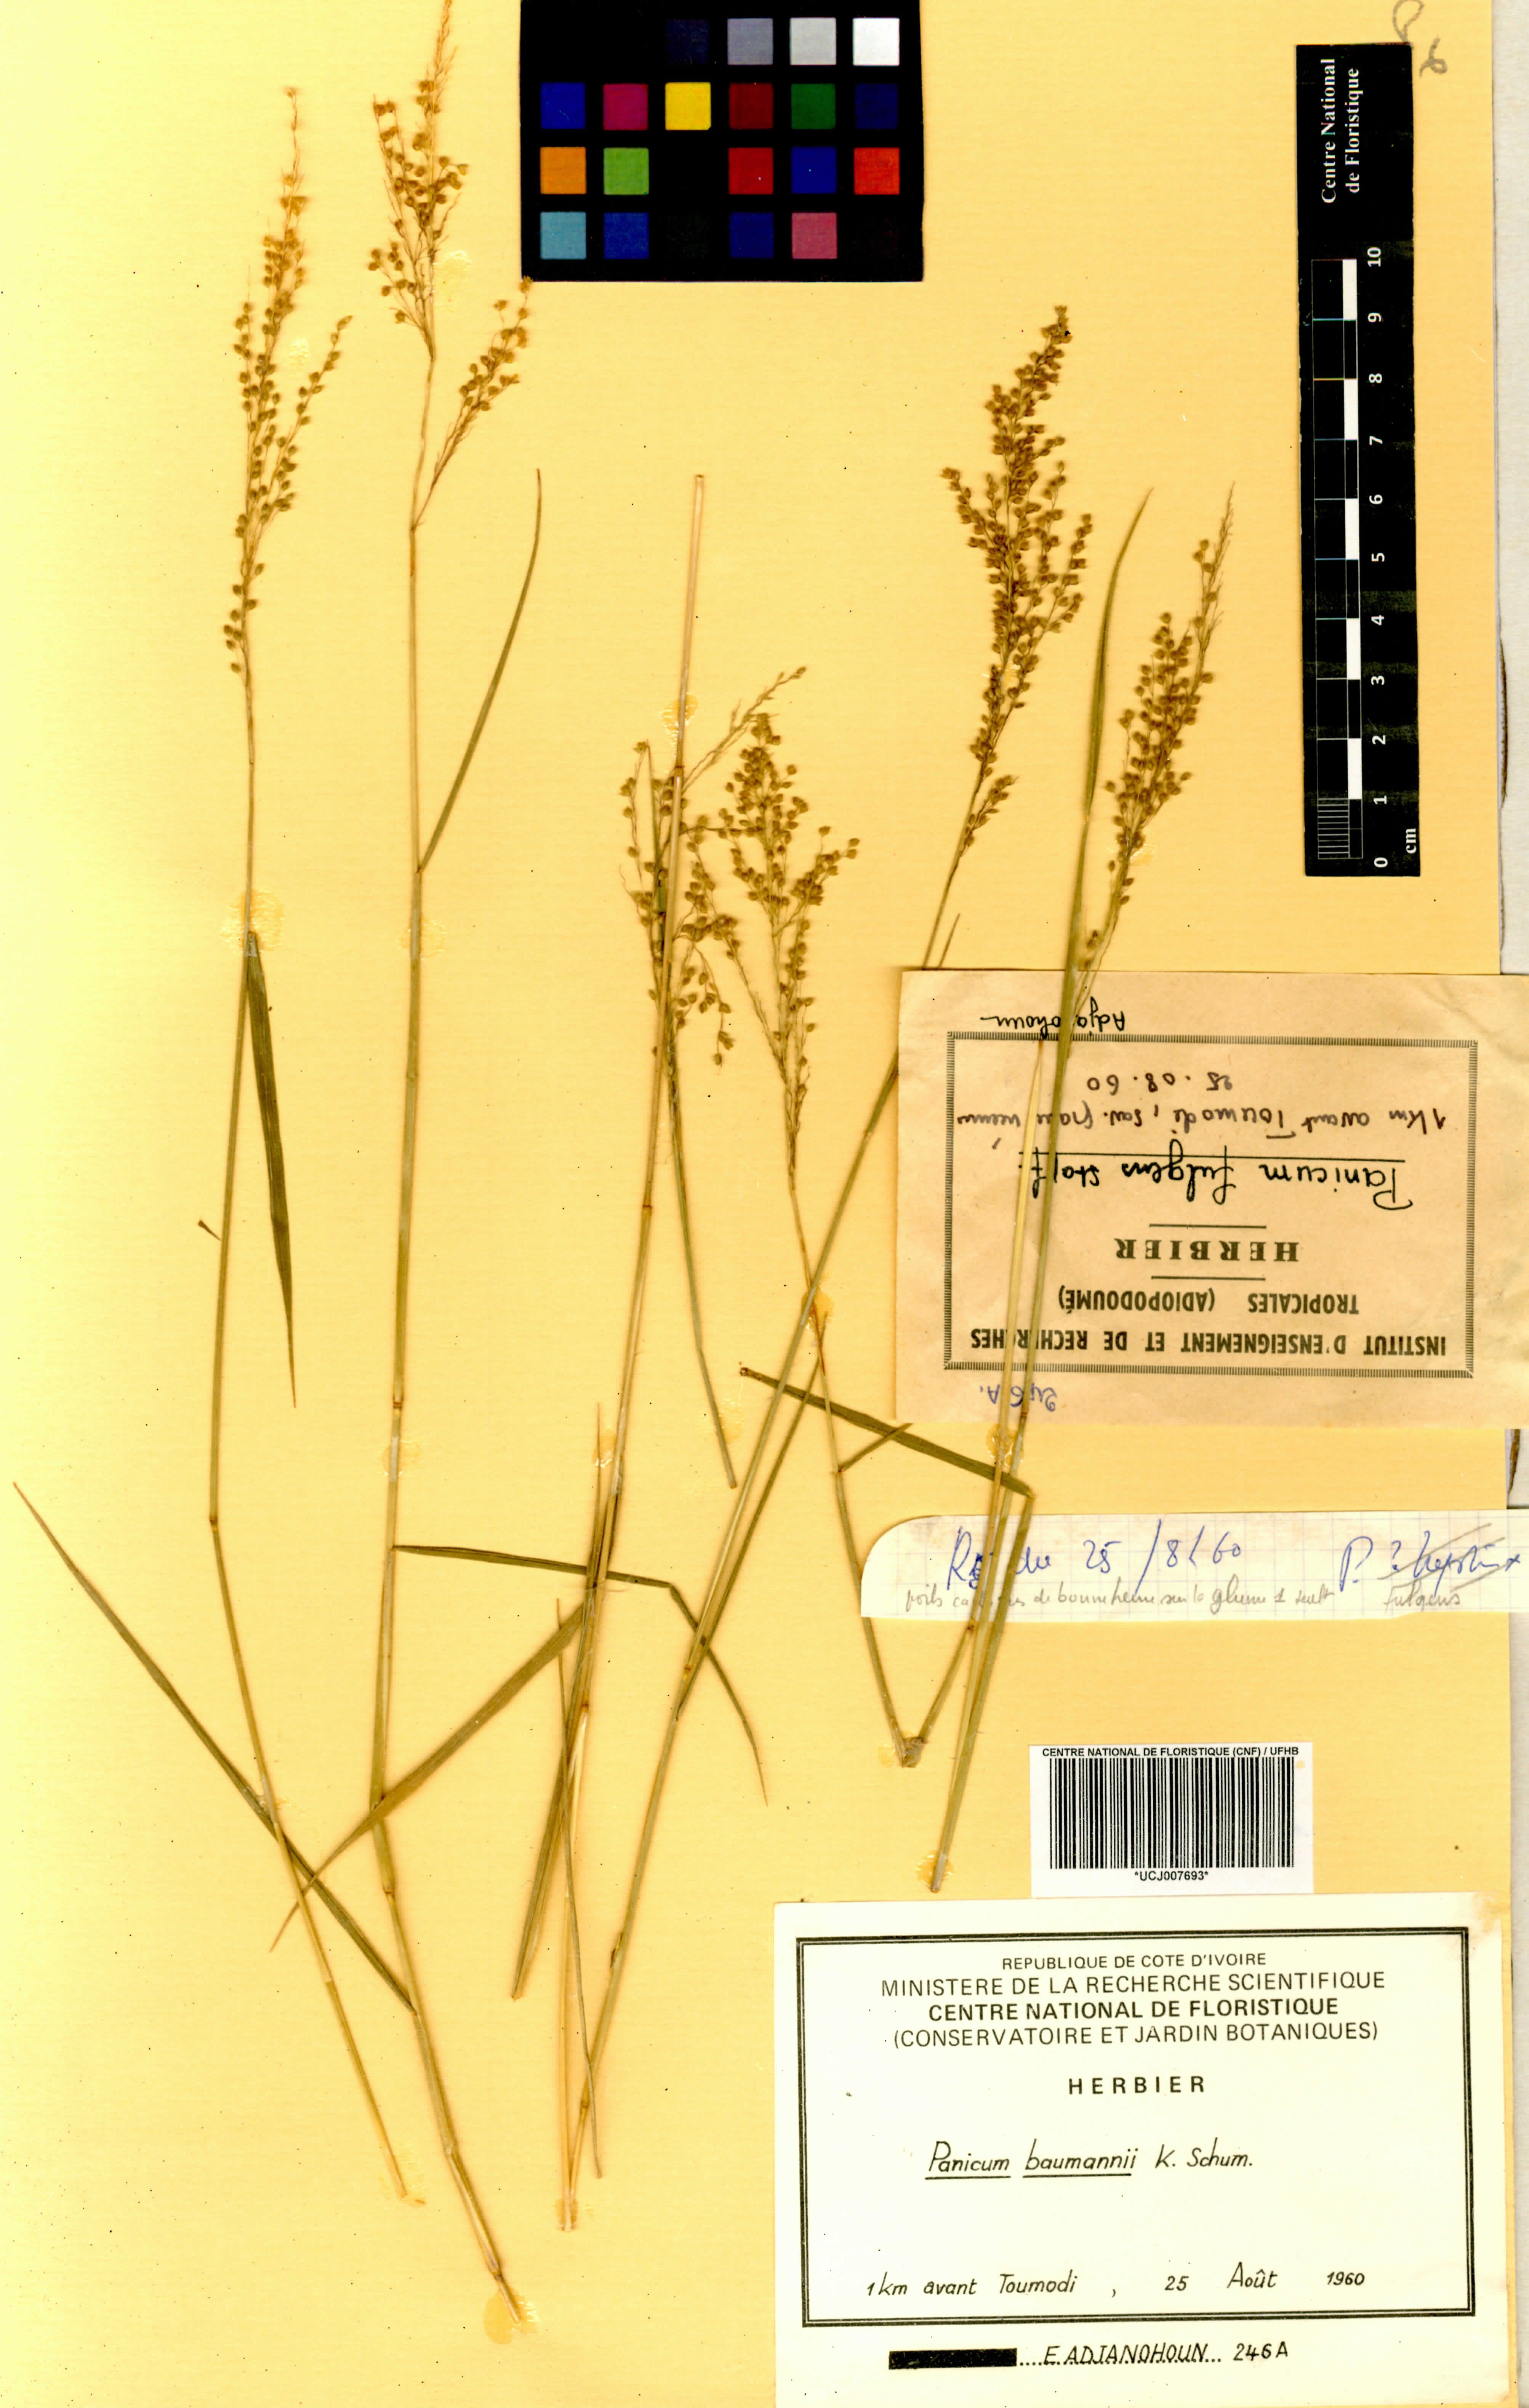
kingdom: Plantae
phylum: Tracheophyta
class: Liliopsida
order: Poales
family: Poaceae
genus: Trichanthecium
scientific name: Trichanthecium nervatum
